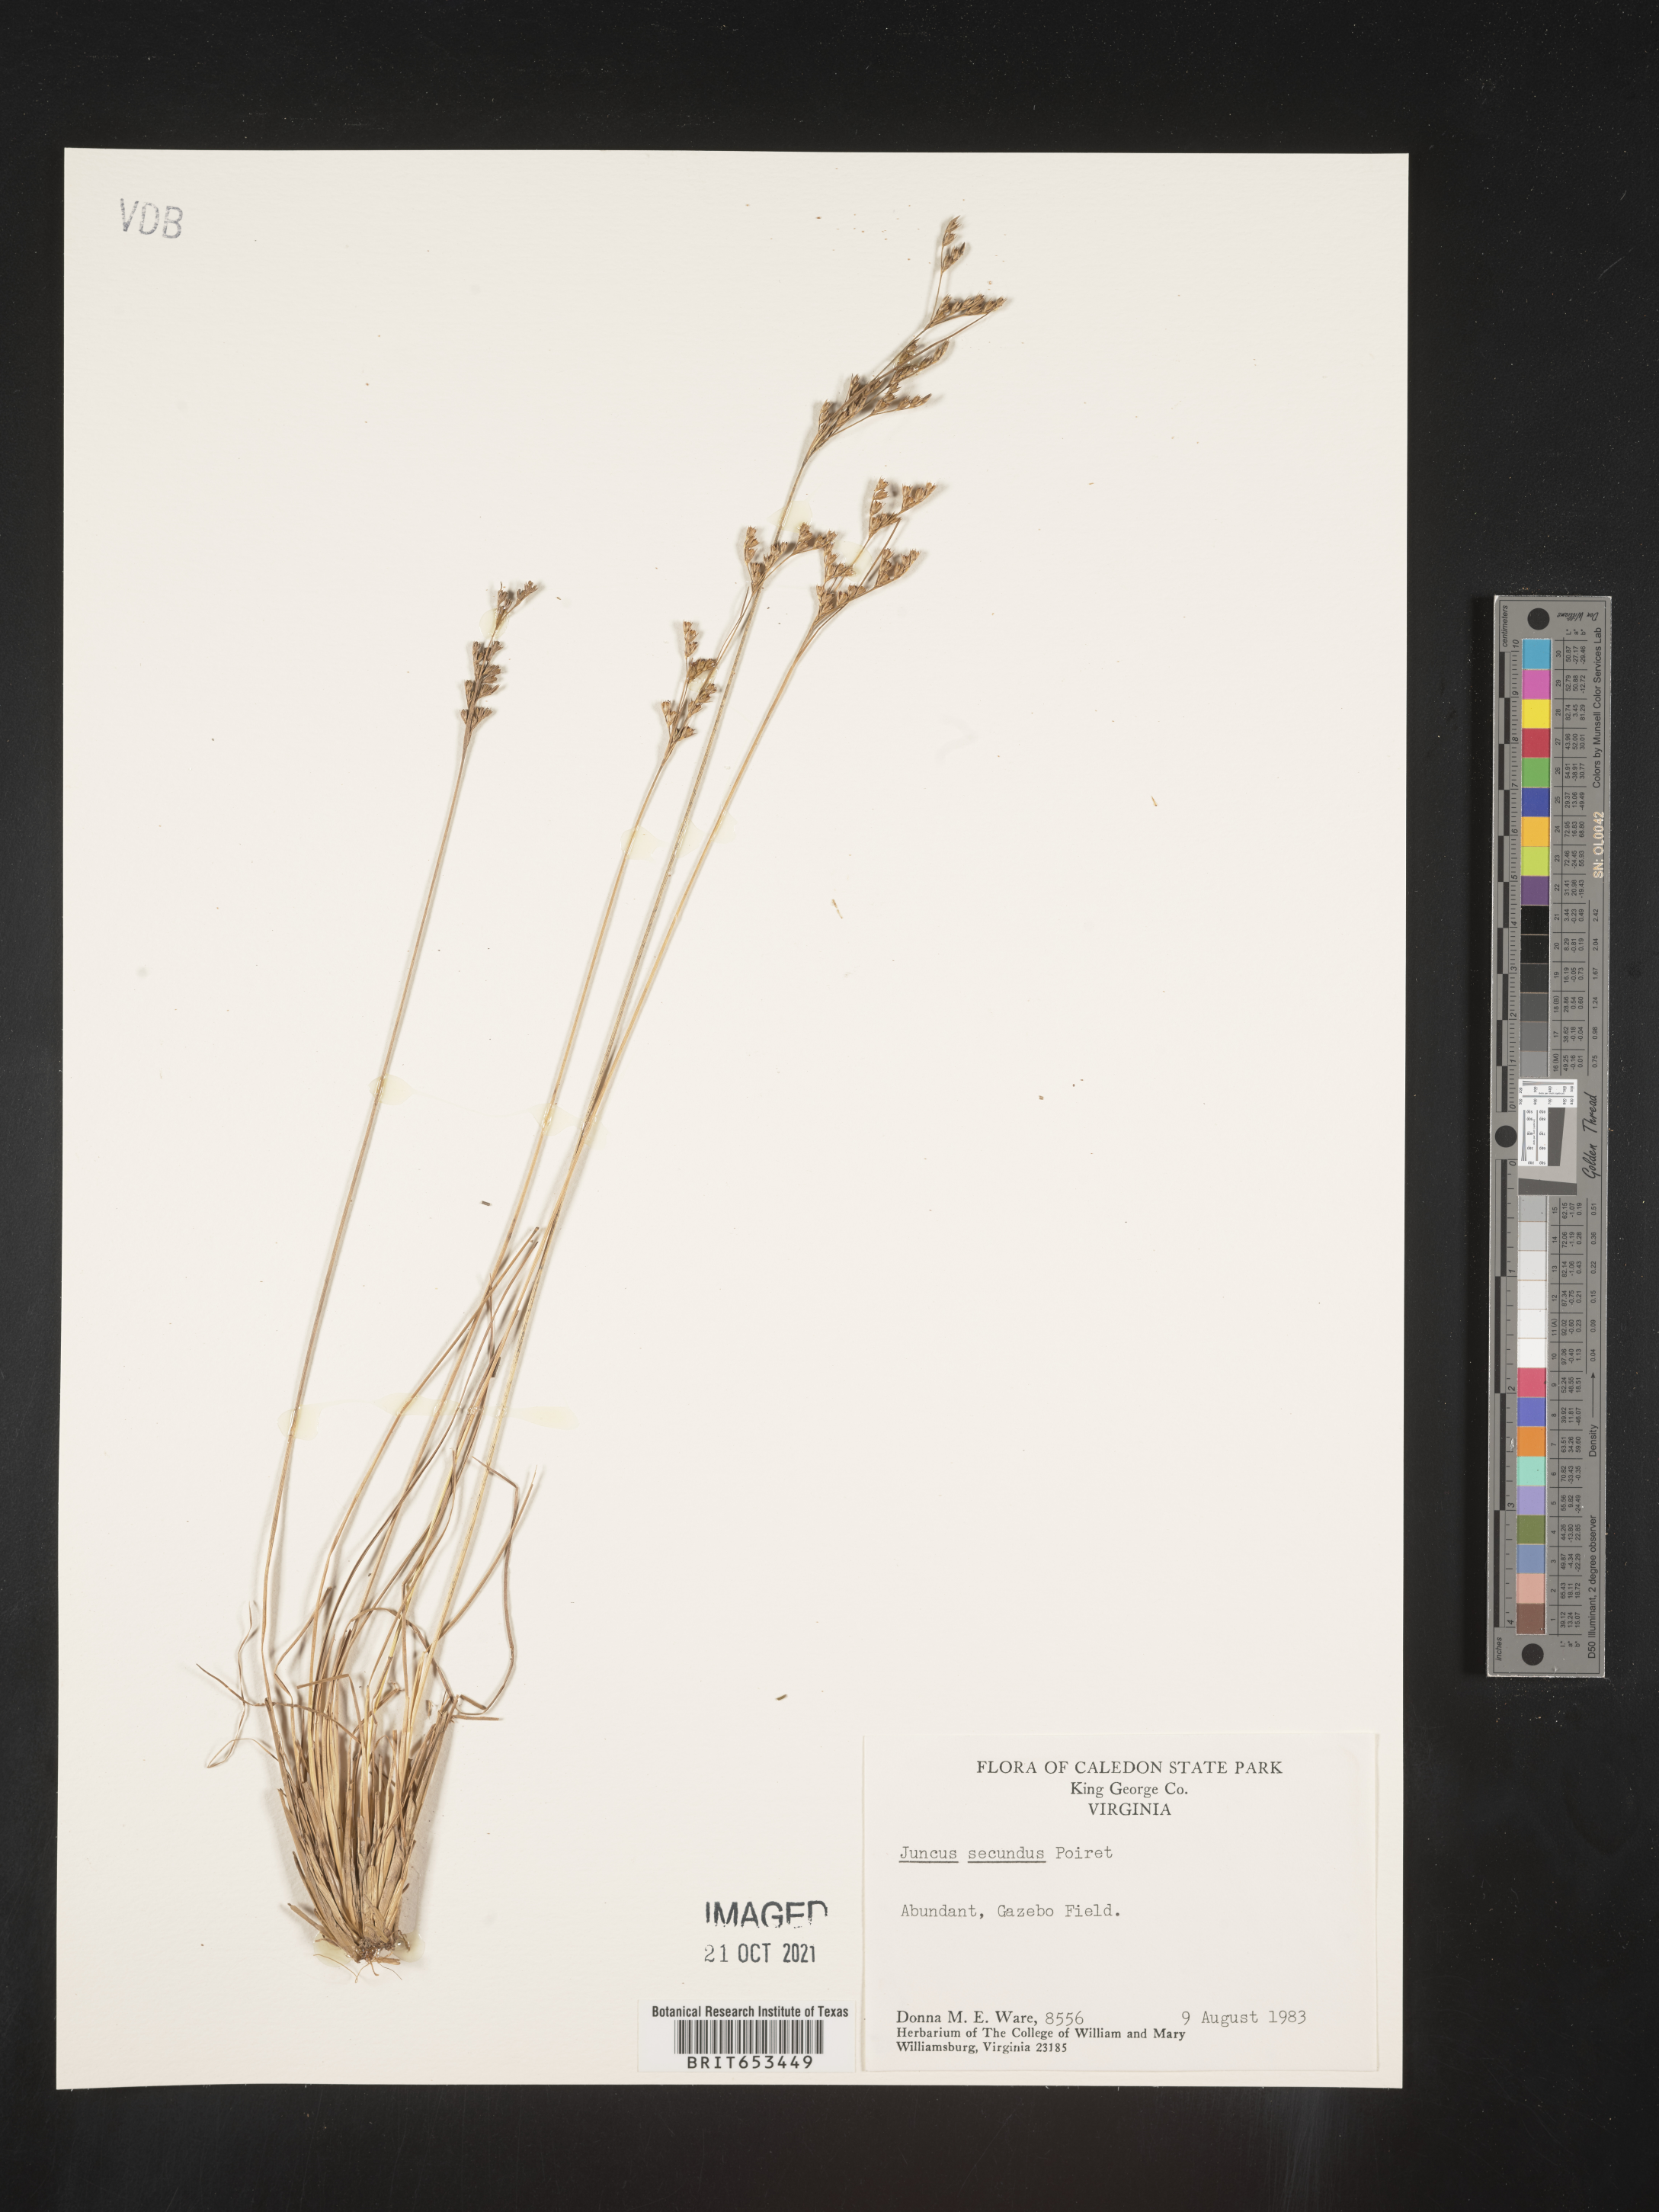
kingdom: Plantae
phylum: Tracheophyta
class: Liliopsida
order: Poales
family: Juncaceae
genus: Juncus
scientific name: Juncus secundus
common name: Lopsided rush
